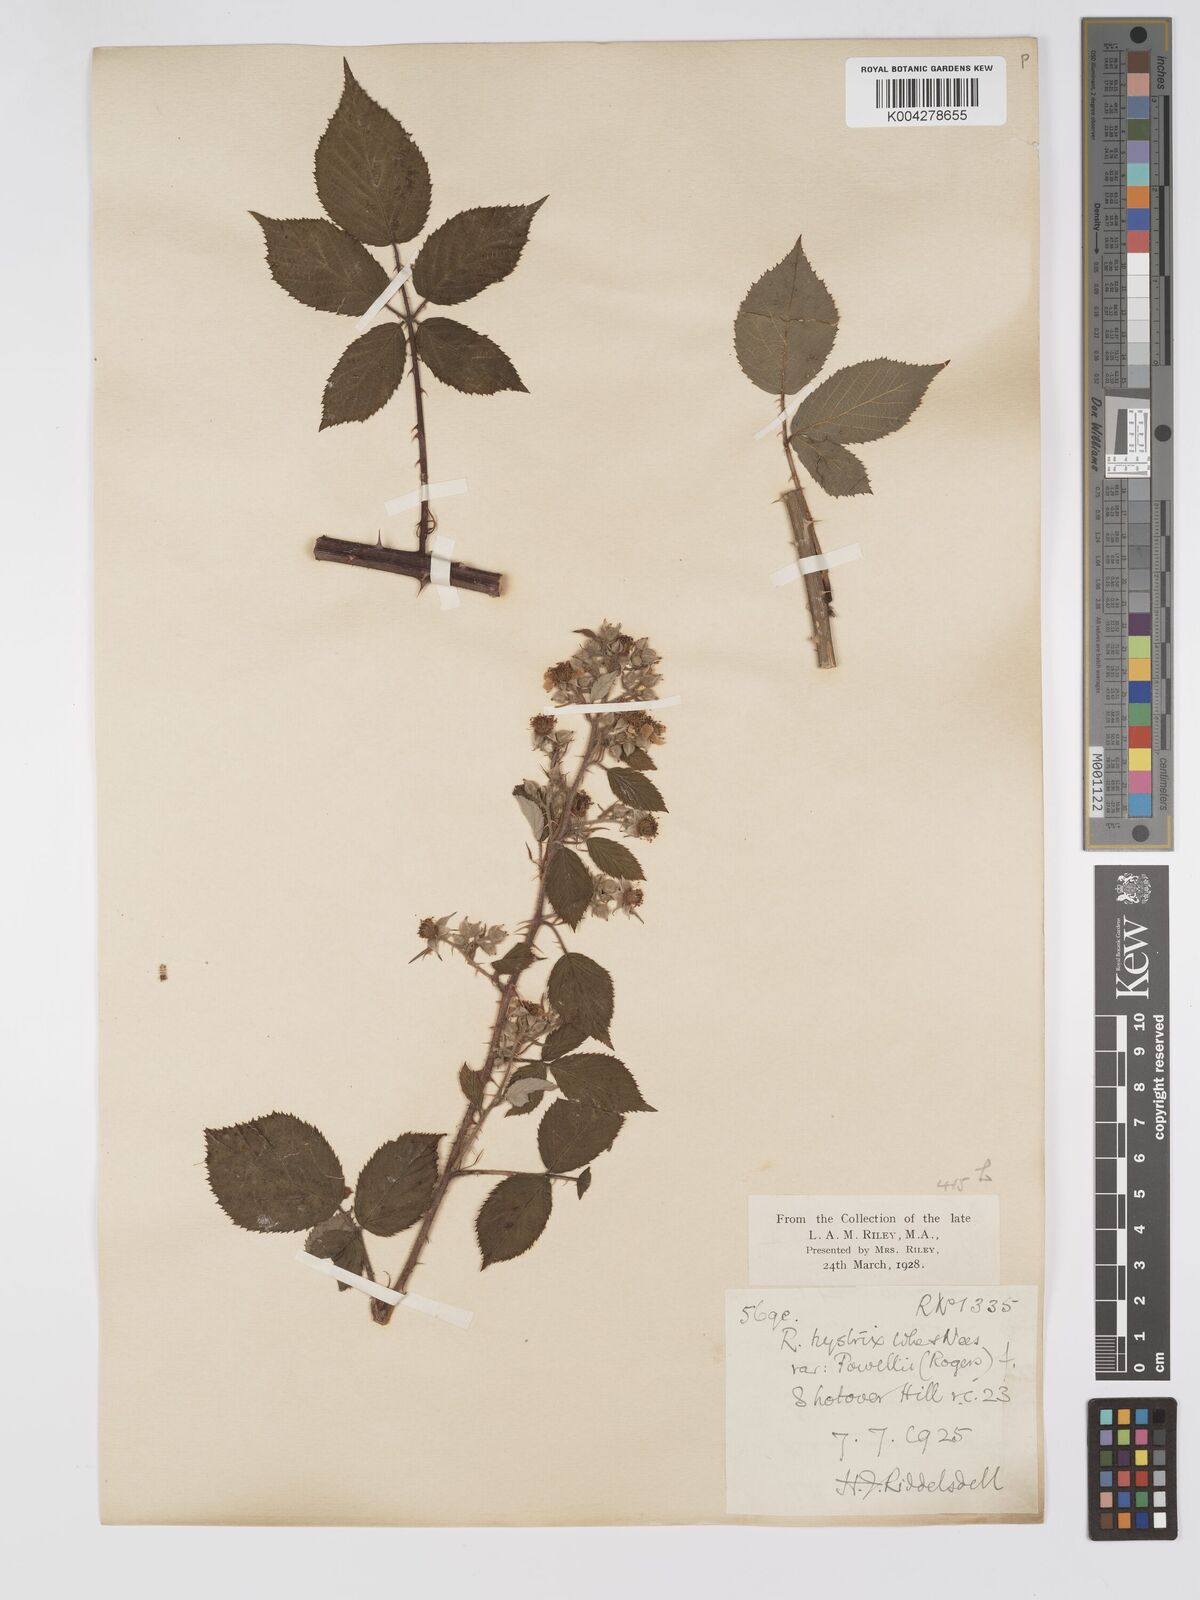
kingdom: Plantae
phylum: Tracheophyta
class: Magnoliopsida
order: Rosales
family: Rosaceae
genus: Rubus
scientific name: Rubus radula
